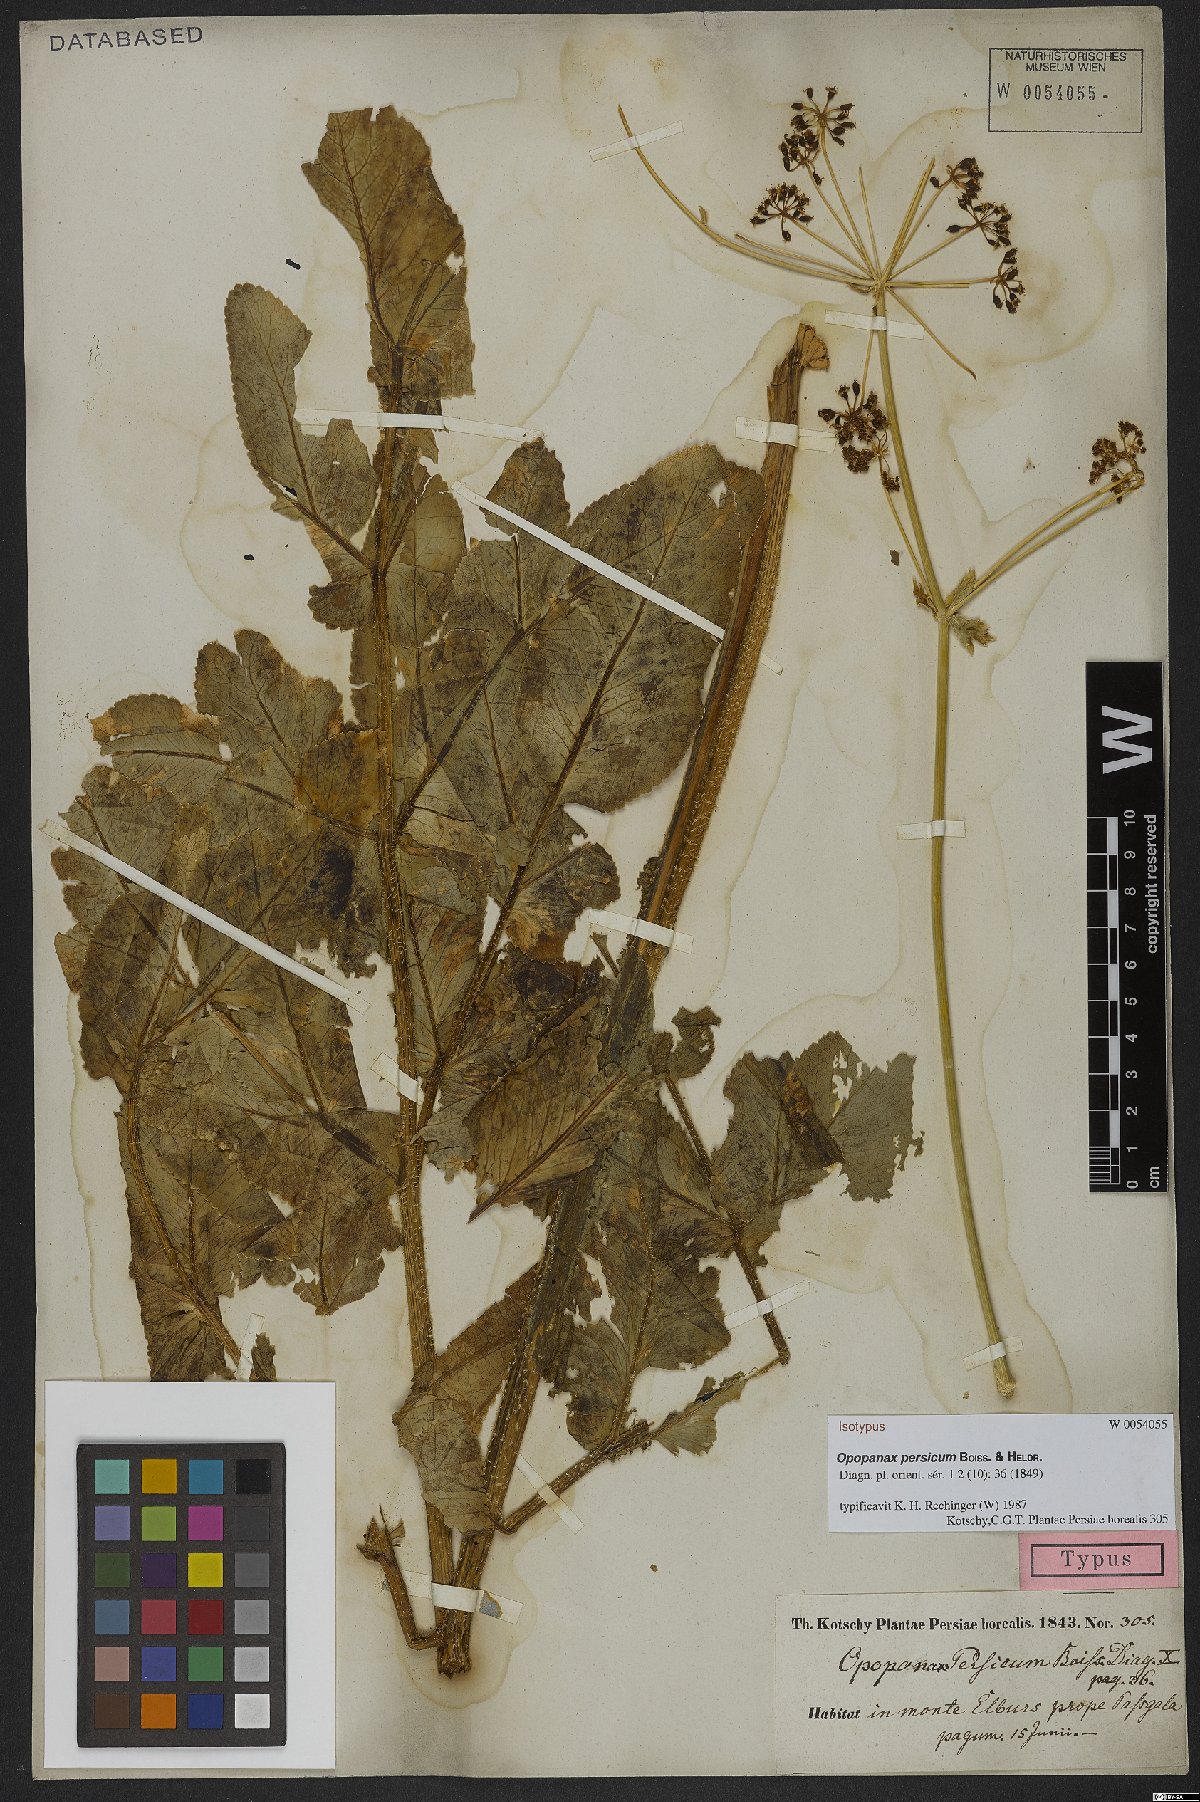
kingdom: Plantae
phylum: Tracheophyta
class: Magnoliopsida
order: Apiales
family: Apiaceae
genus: Opopanax
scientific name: Opopanax persicus
